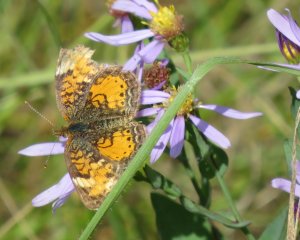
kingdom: Animalia
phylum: Arthropoda
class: Insecta
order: Lepidoptera
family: Nymphalidae
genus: Phyciodes
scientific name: Phyciodes tharos
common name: Northern Crescent
